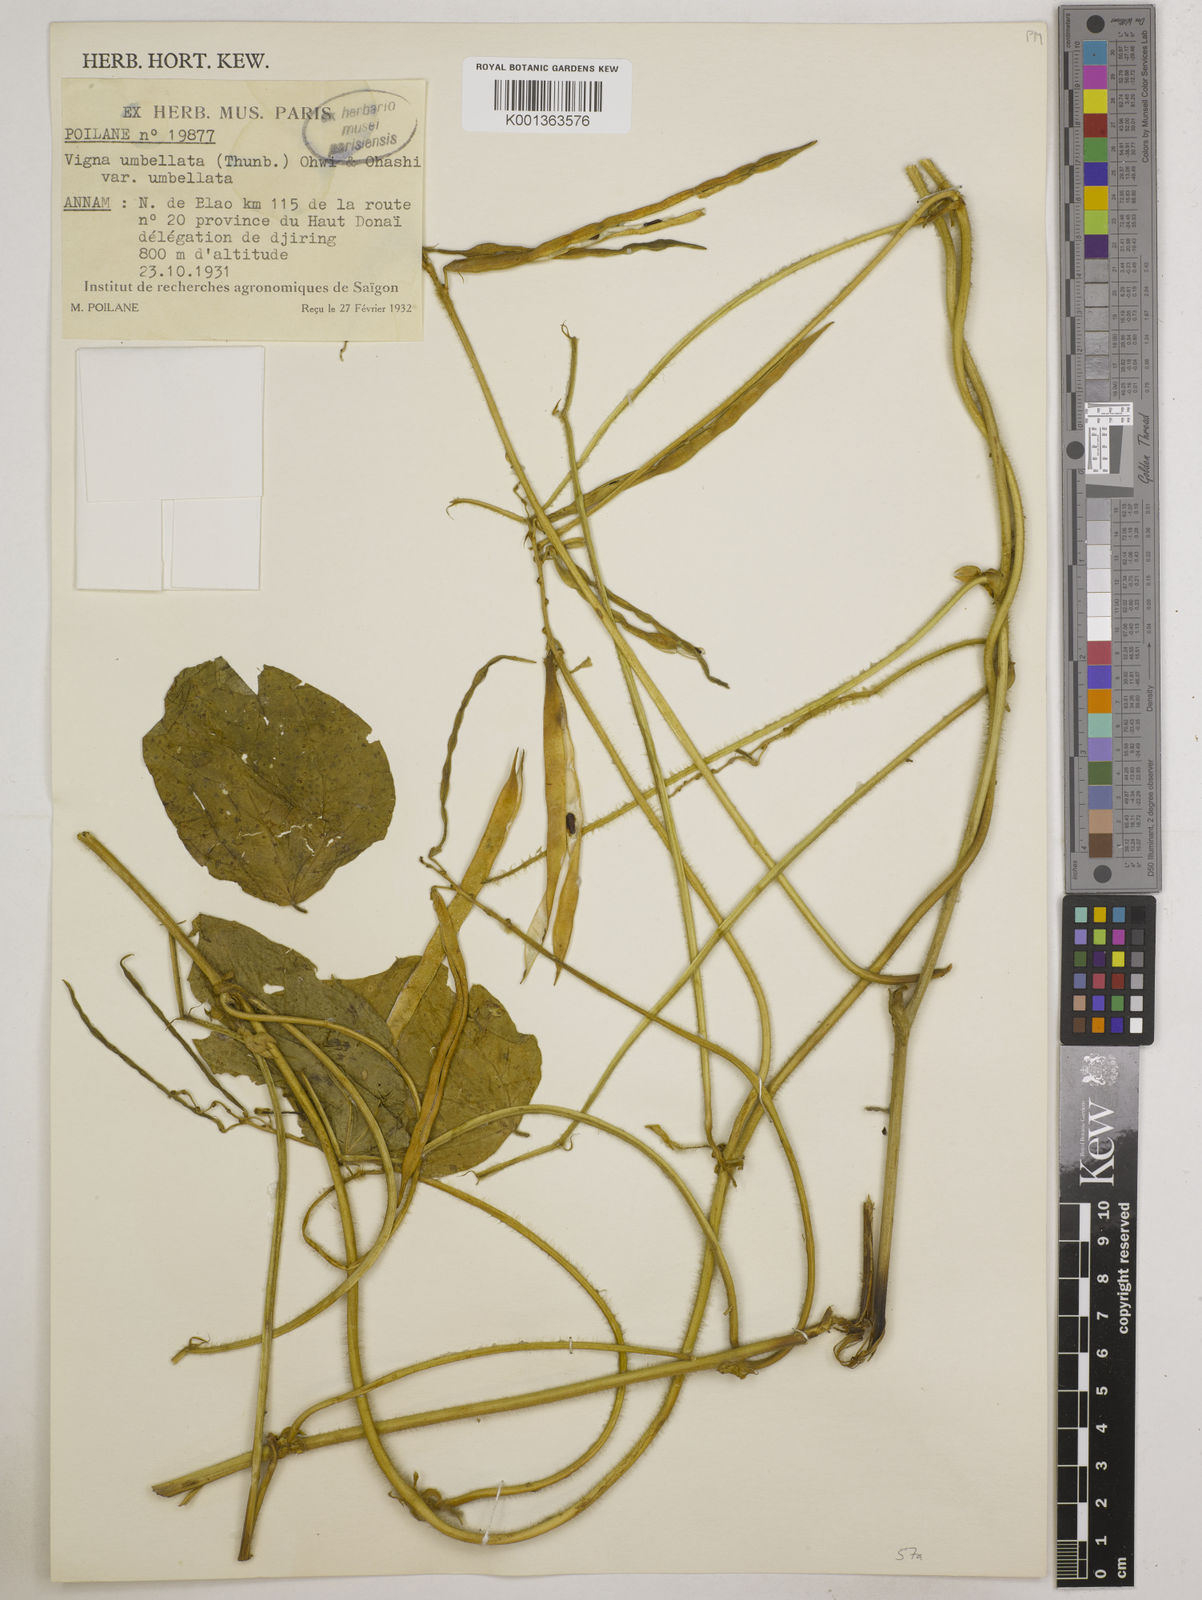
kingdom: Plantae
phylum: Tracheophyta
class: Magnoliopsida
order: Fabales
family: Fabaceae
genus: Vigna
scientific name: Vigna
